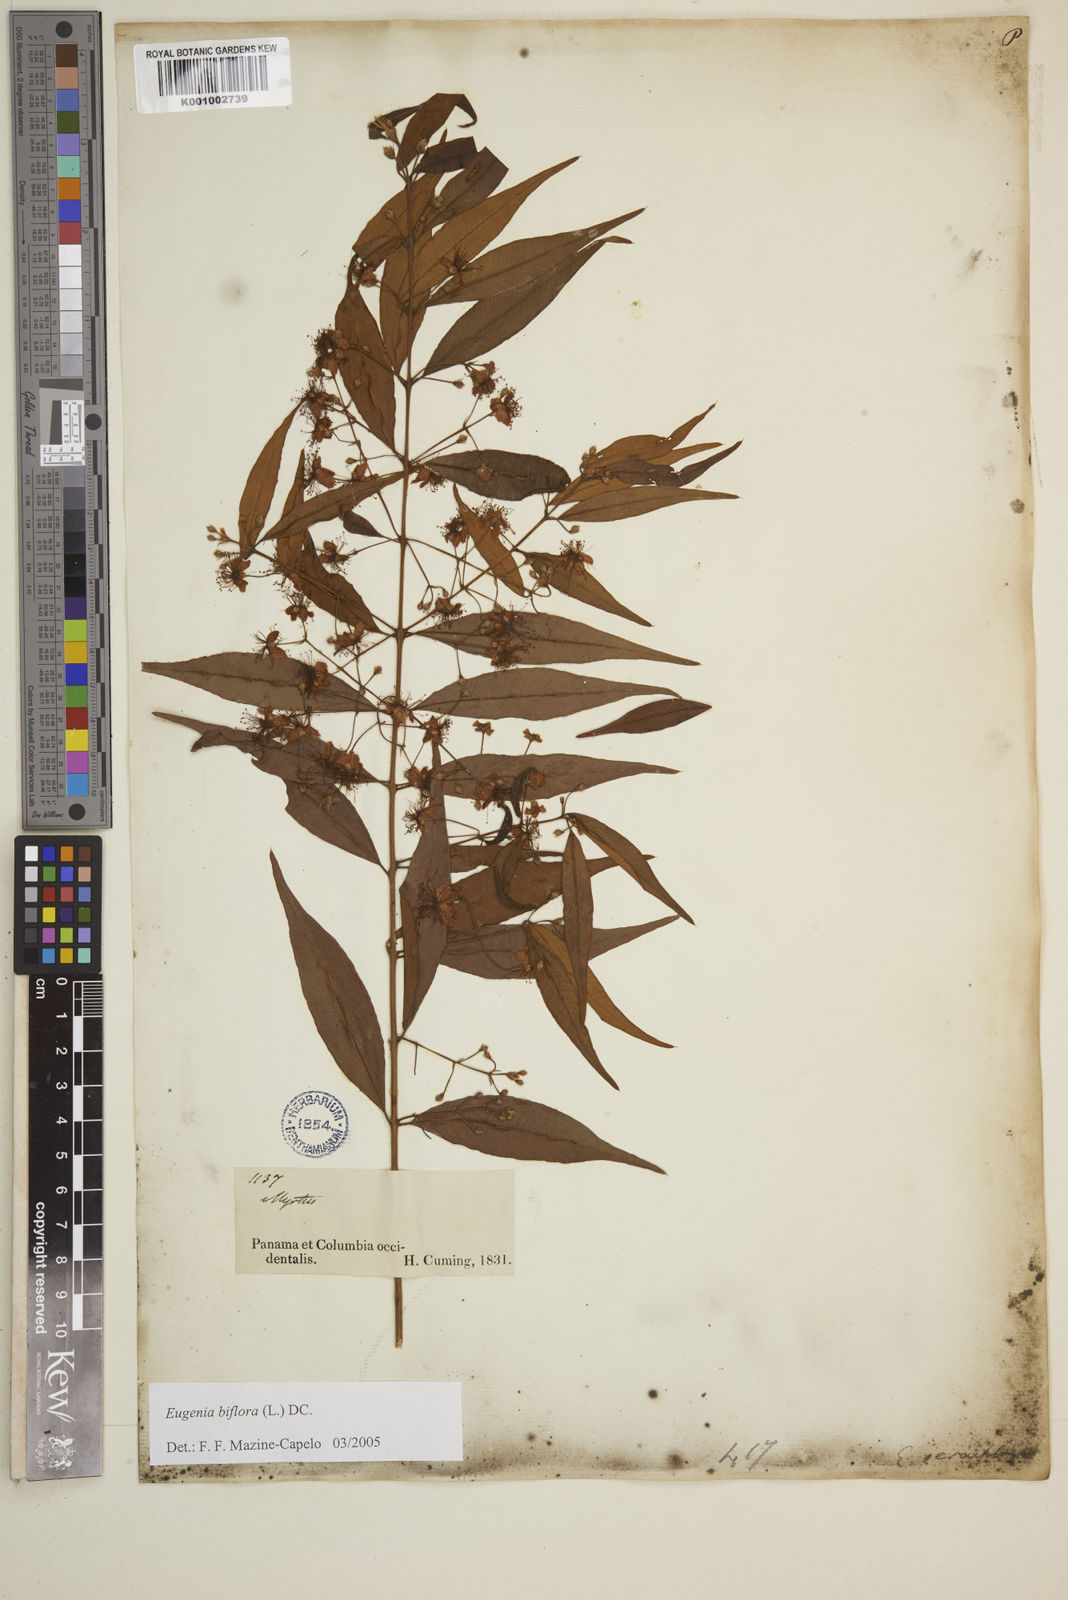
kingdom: Plantae
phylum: Tracheophyta
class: Magnoliopsida
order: Myrtales
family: Myrtaceae
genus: Eugenia
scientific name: Eugenia biflora
